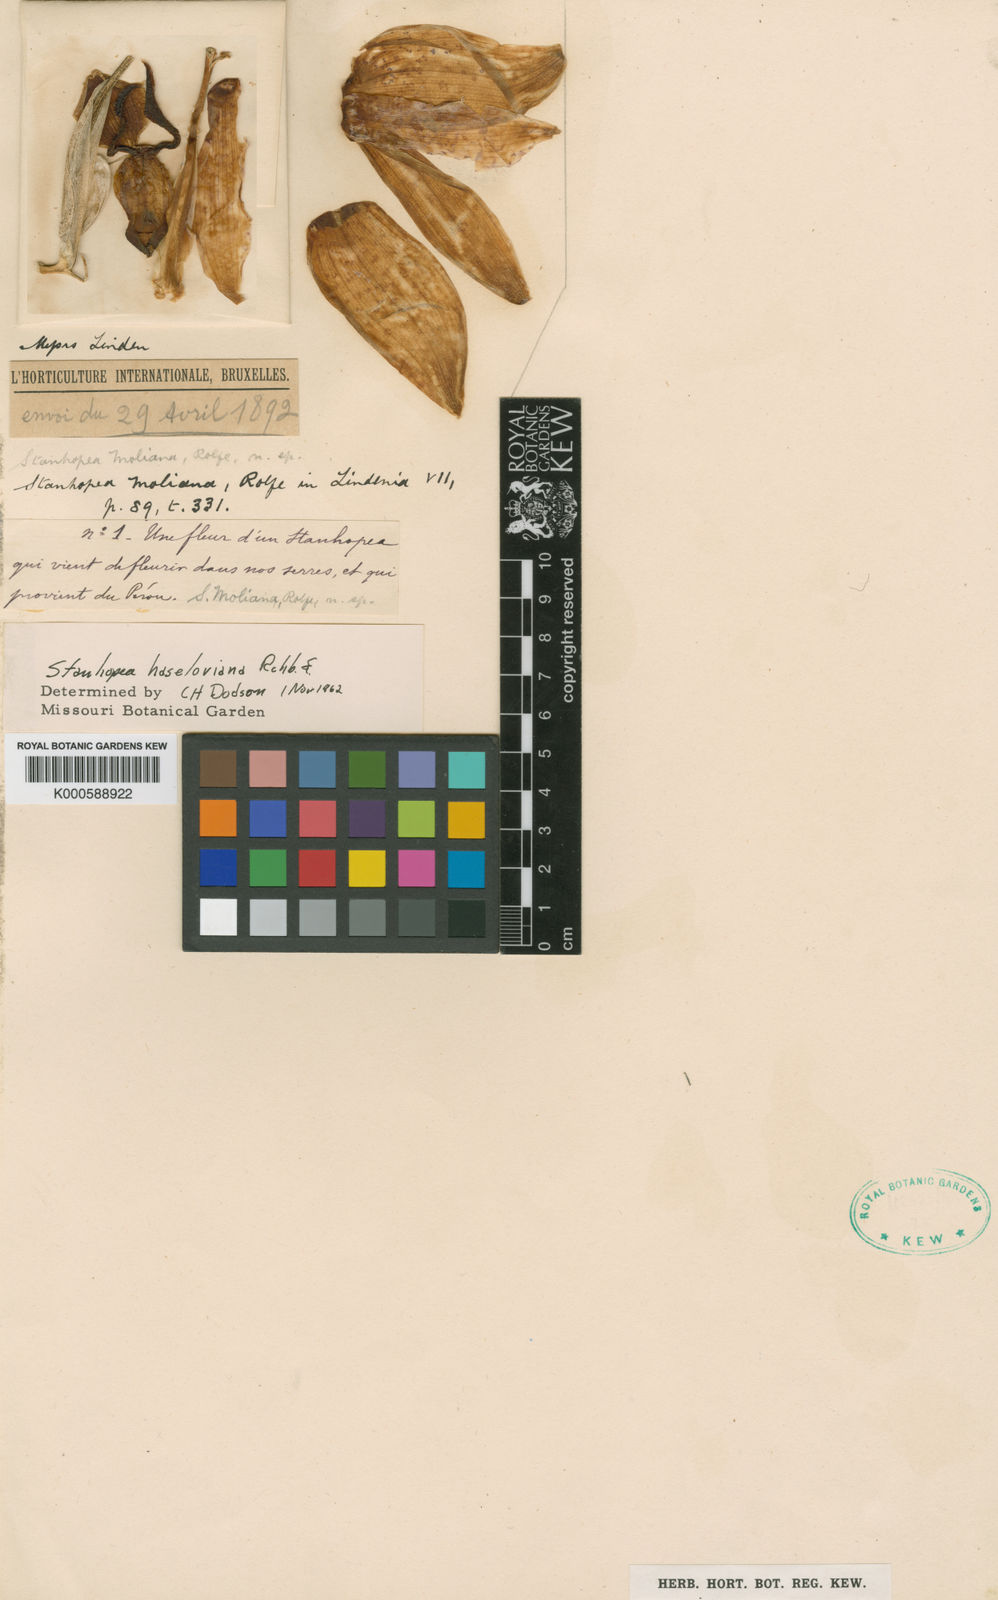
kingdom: Plantae
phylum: Tracheophyta
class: Liliopsida
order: Asparagales
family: Orchidaceae
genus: Stanhopea
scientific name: Stanhopea
